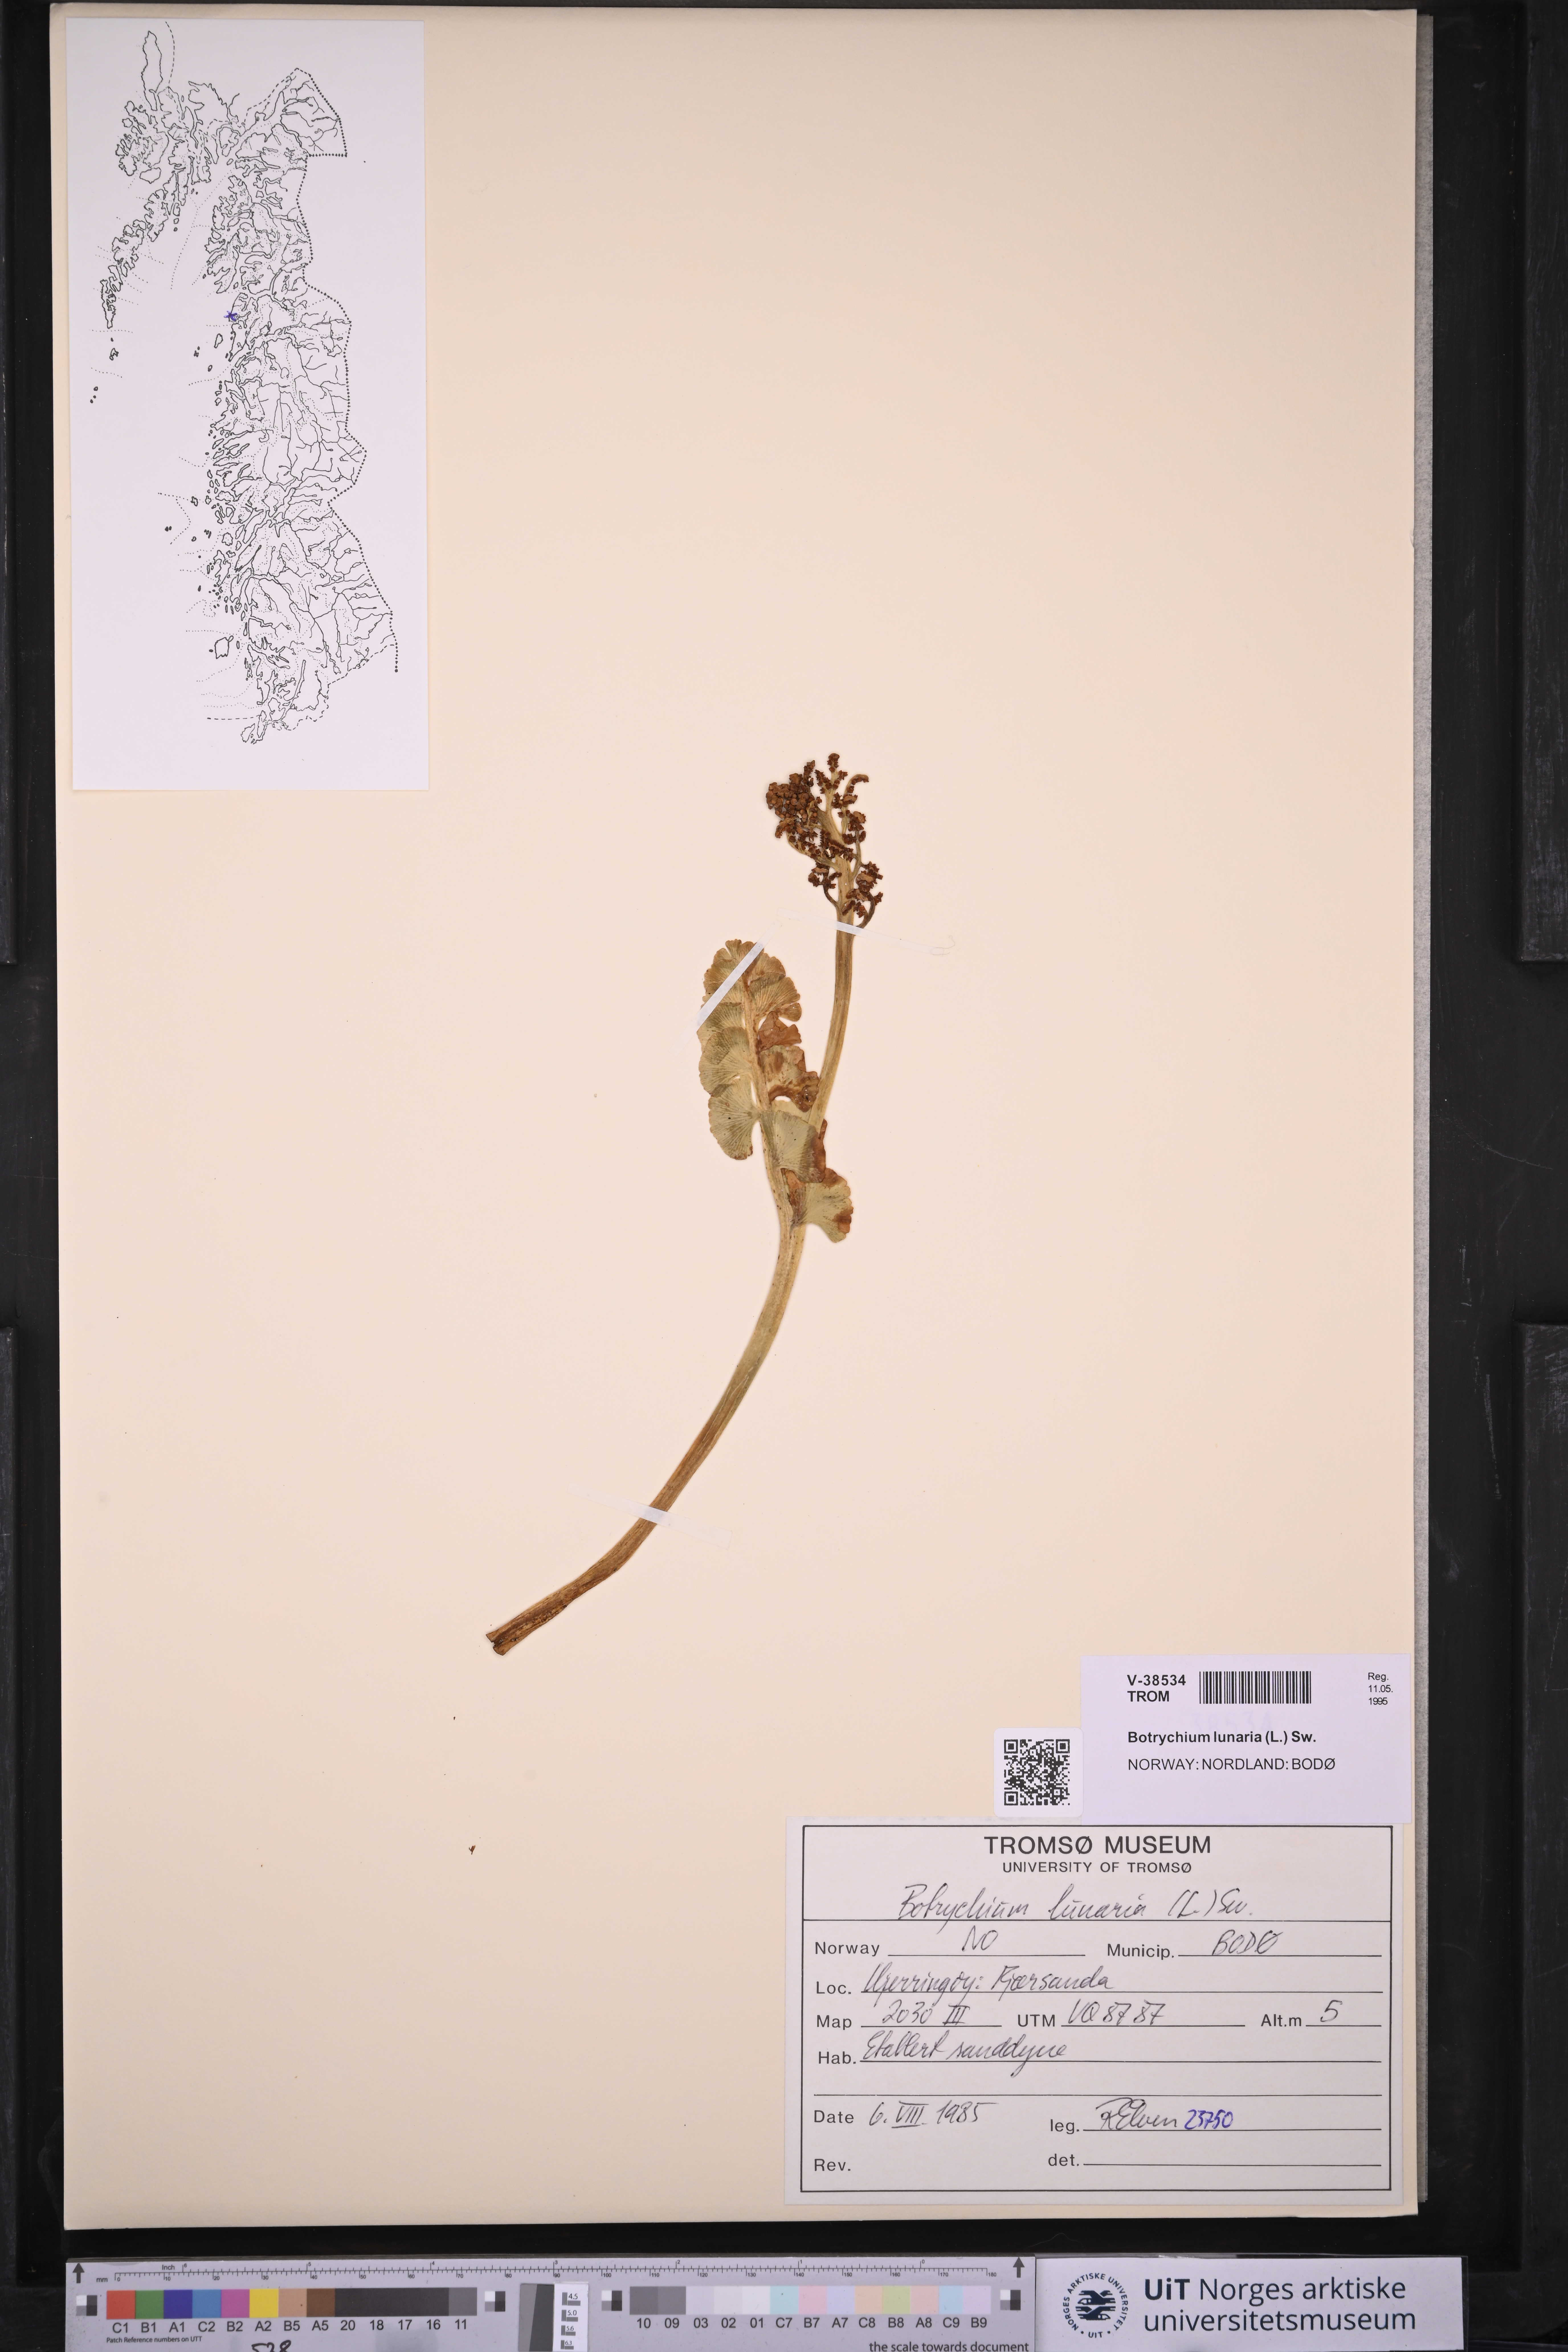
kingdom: Plantae
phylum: Tracheophyta
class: Polypodiopsida
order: Ophioglossales
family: Ophioglossaceae
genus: Botrychium
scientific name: Botrychium lunaria
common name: Moonwort
